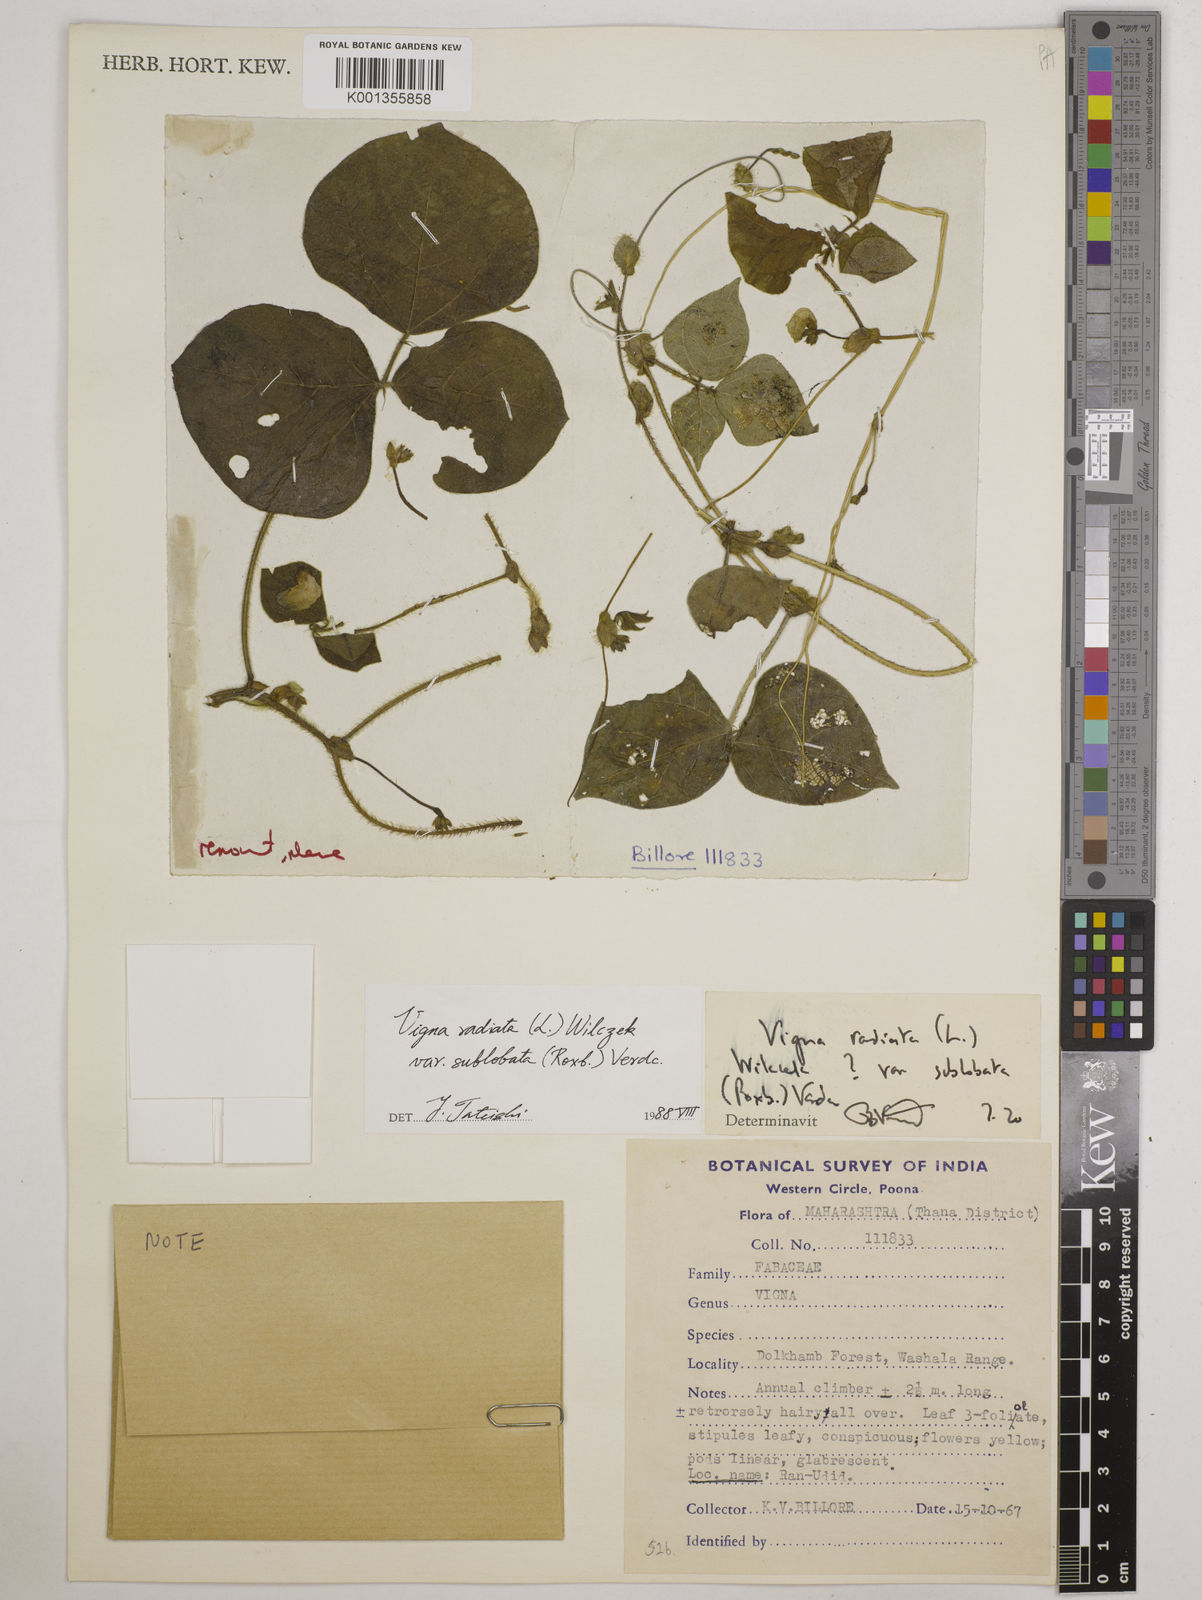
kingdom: Plantae
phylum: Tracheophyta
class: Magnoliopsida
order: Fabales
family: Fabaceae
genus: Vigna
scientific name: Vigna radiata
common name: Mung-bean
